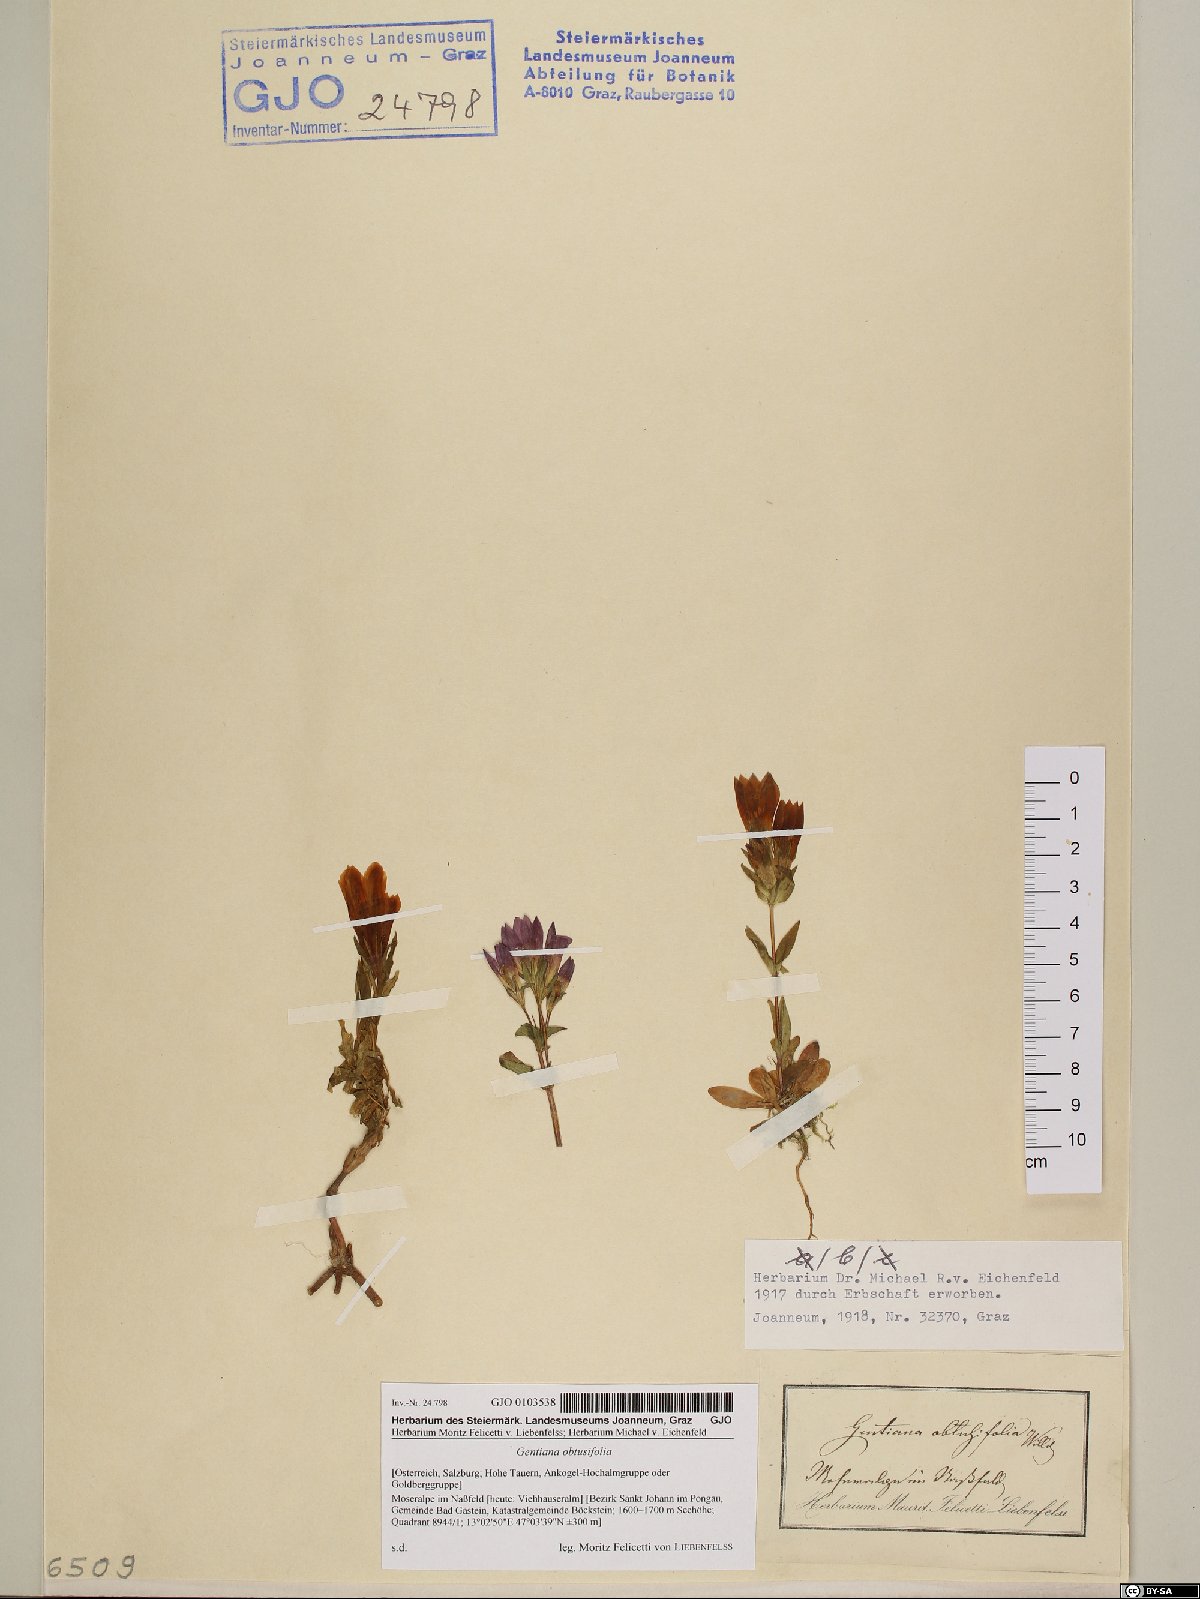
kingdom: Plantae
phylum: Tracheophyta
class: Magnoliopsida
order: Gentianales
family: Gentianaceae
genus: Gentianella
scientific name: Gentianella obtusifolia
